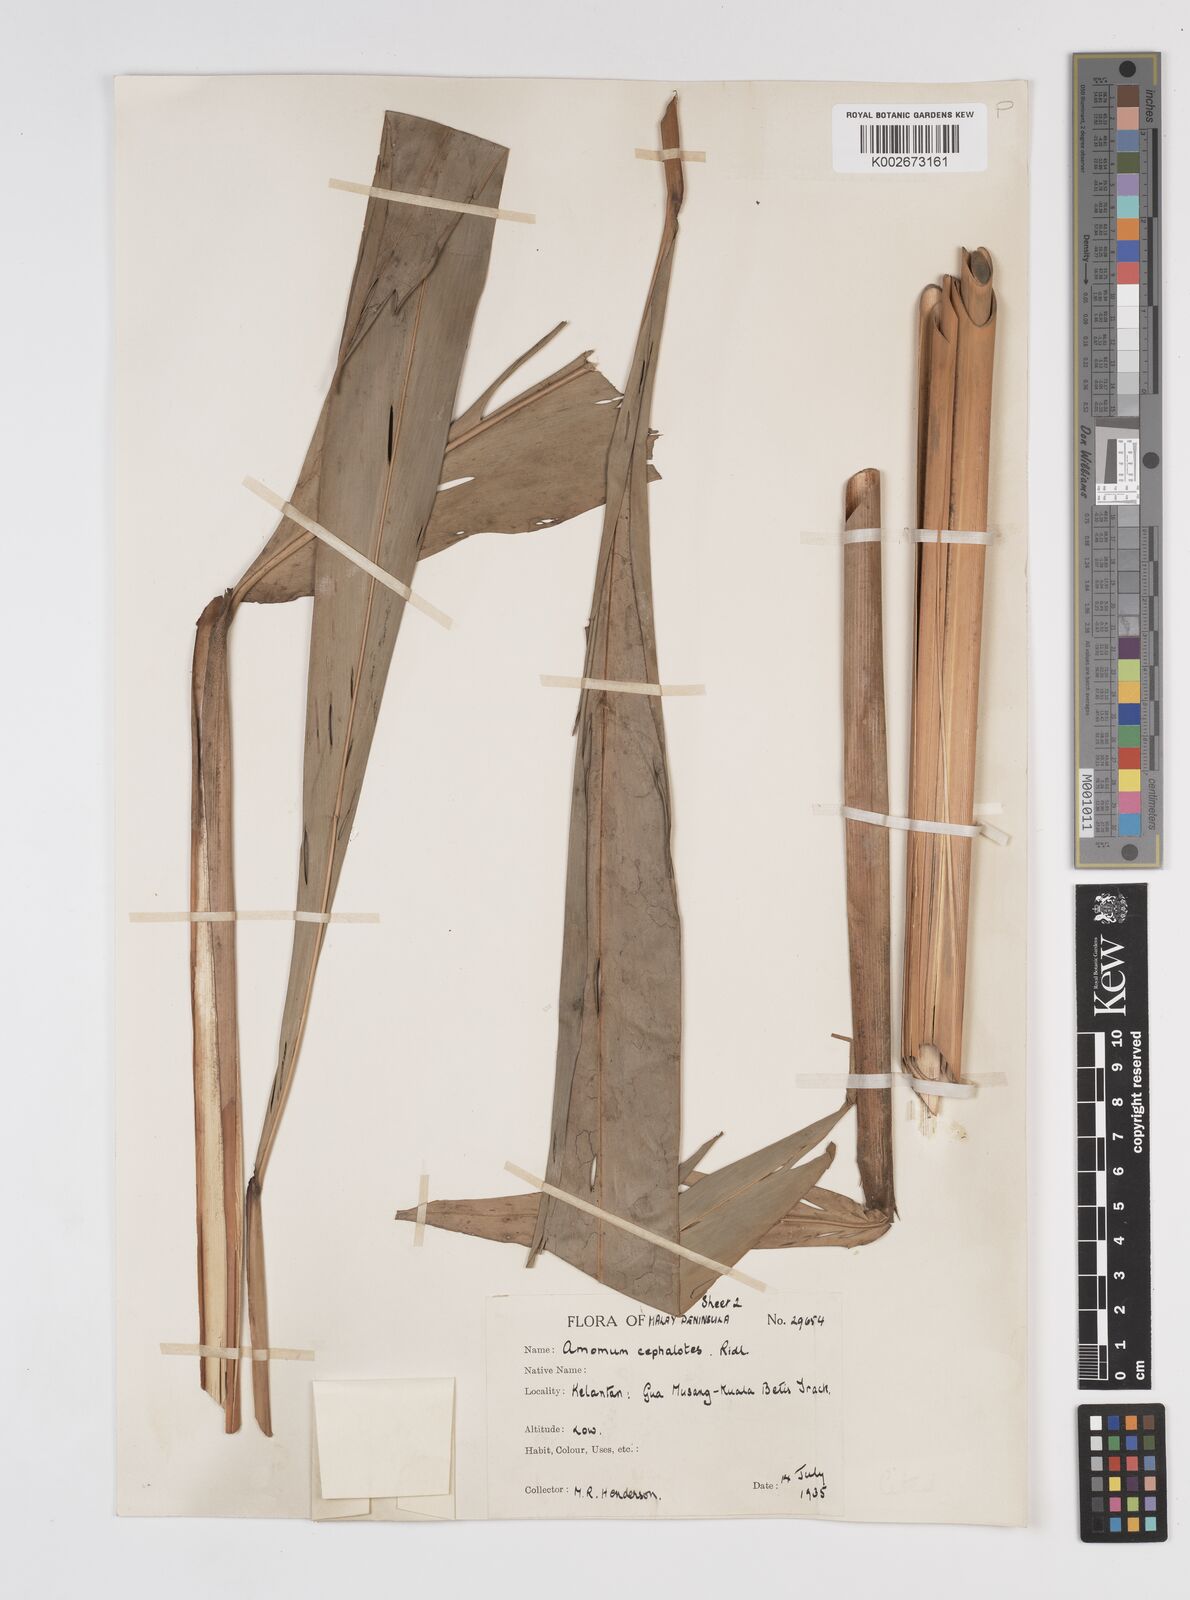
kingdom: Plantae
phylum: Tracheophyta
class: Liliopsida
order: Zingiberales
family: Zingiberaceae
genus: Amomum
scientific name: Amomum cephalotes
